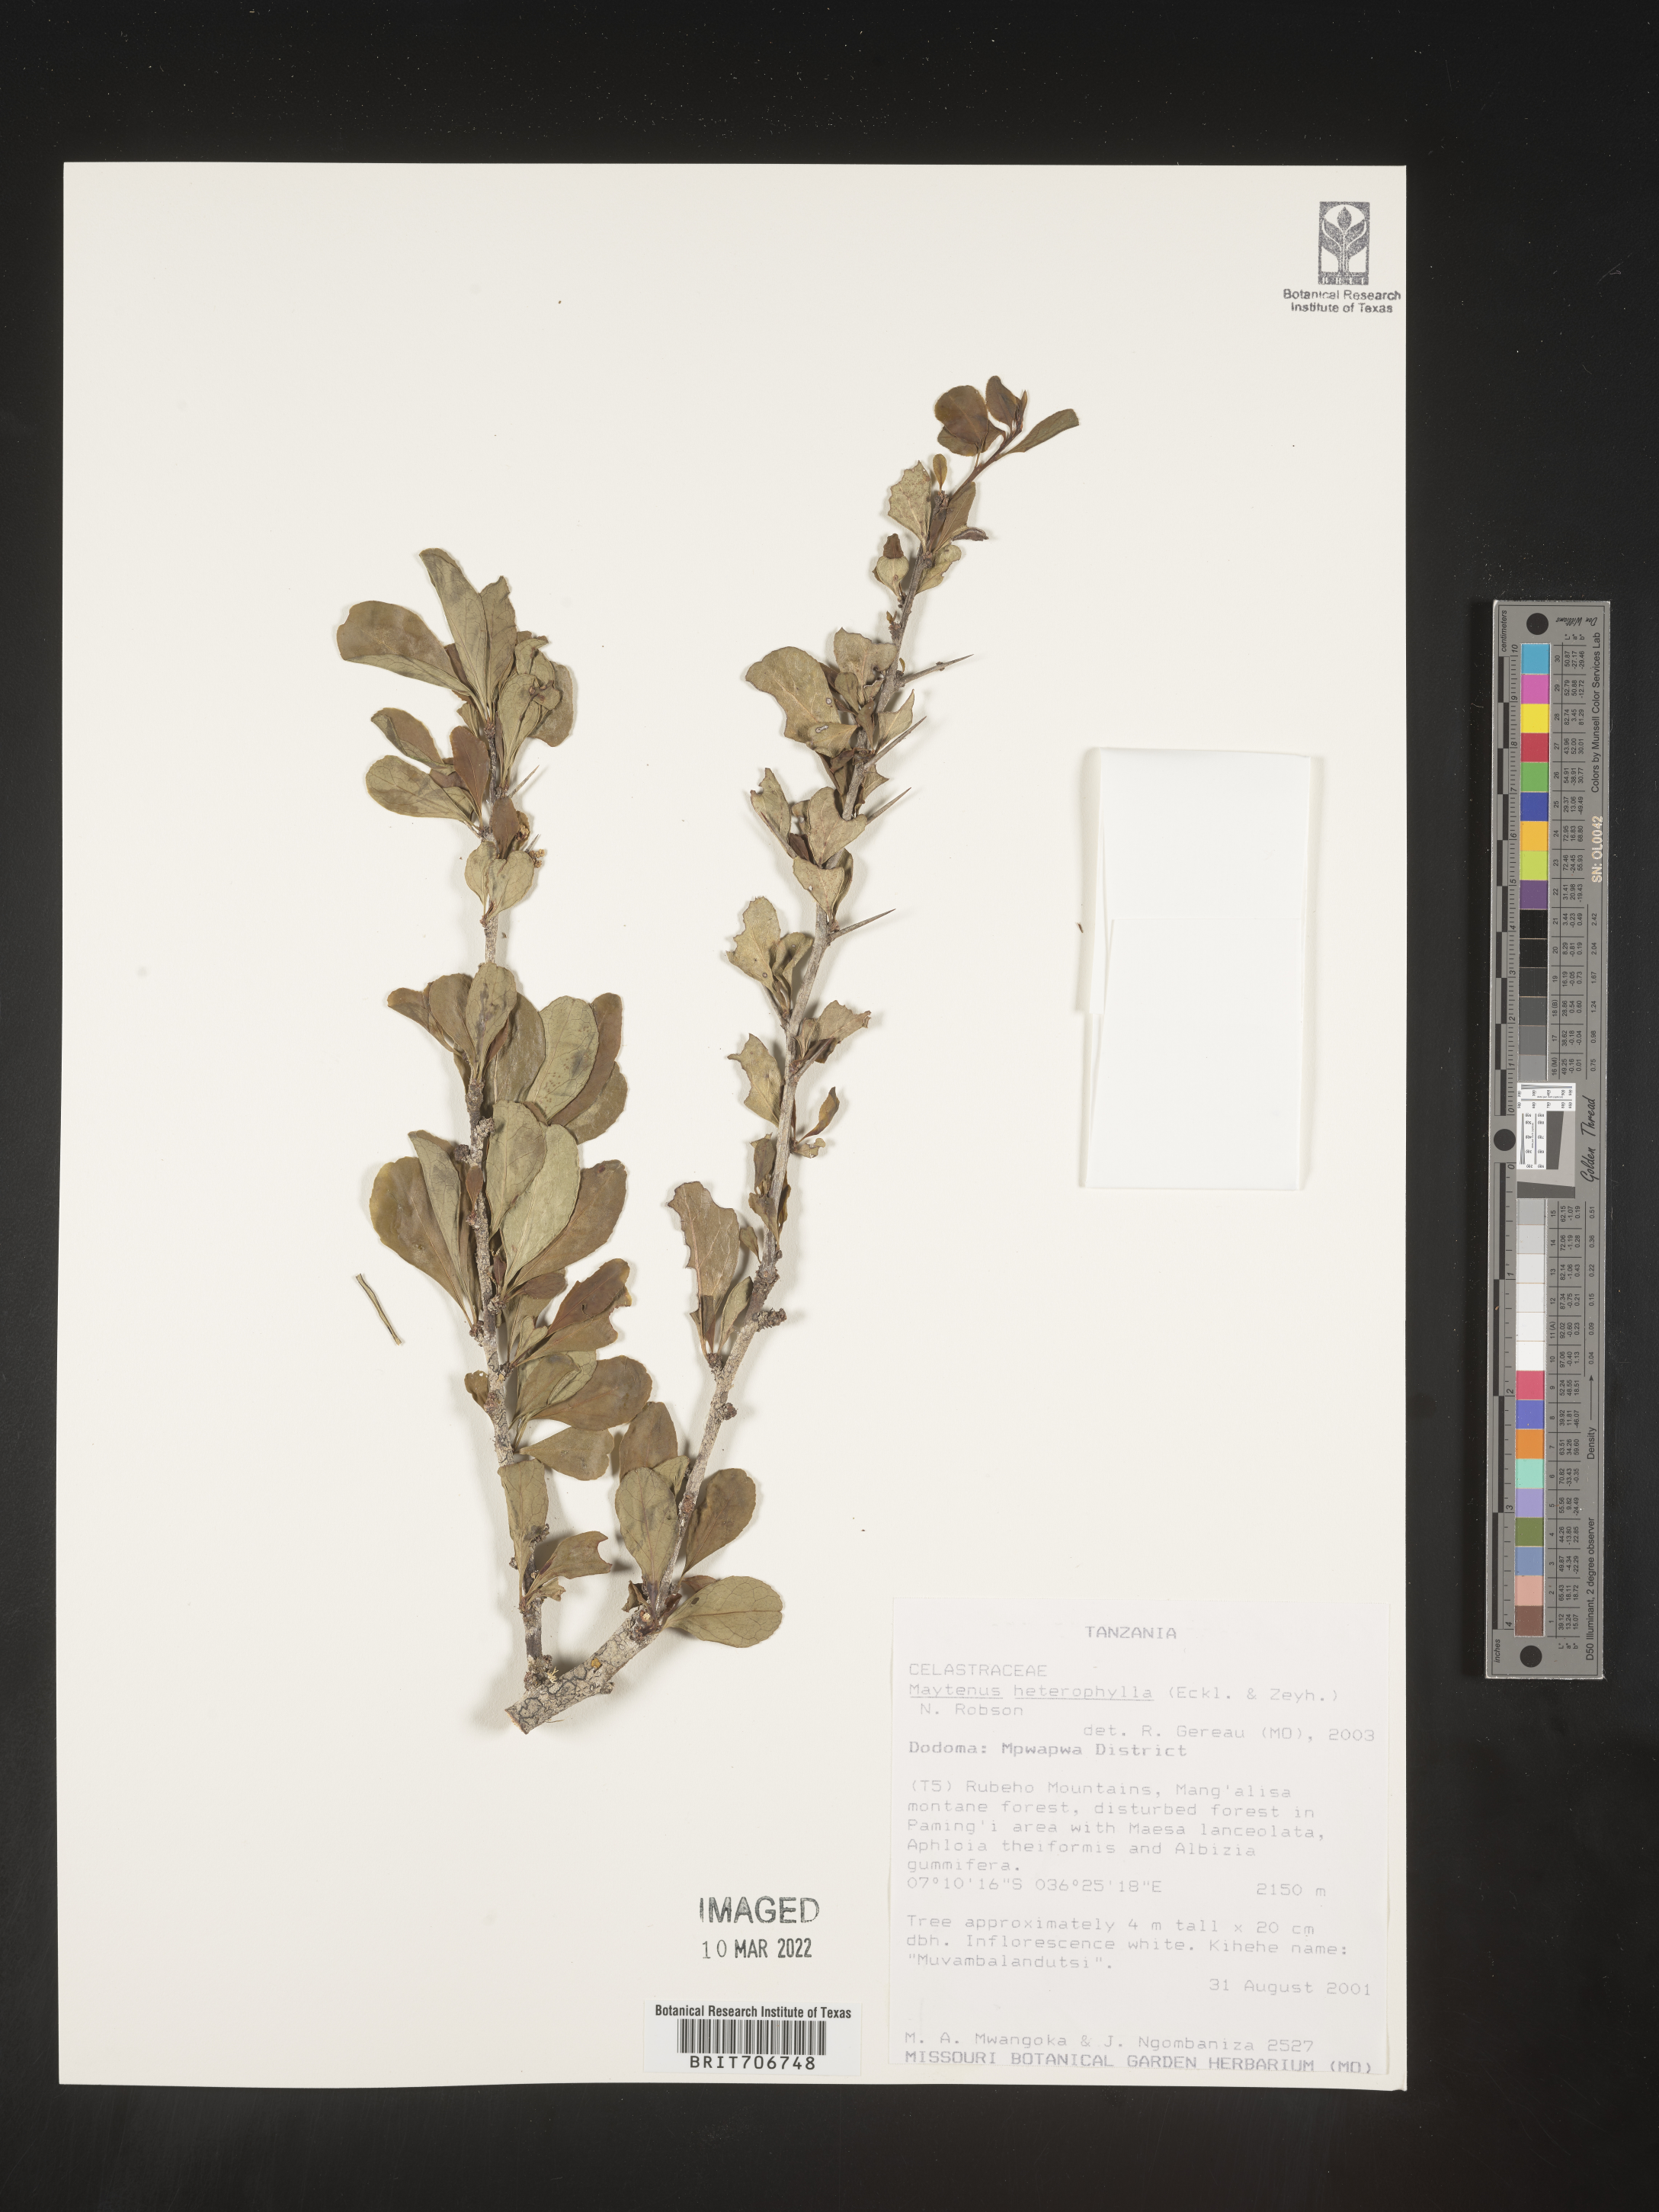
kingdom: Plantae
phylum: Tracheophyta
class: Magnoliopsida
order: Celastrales
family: Celastraceae
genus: Maytenus
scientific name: Maytenus
